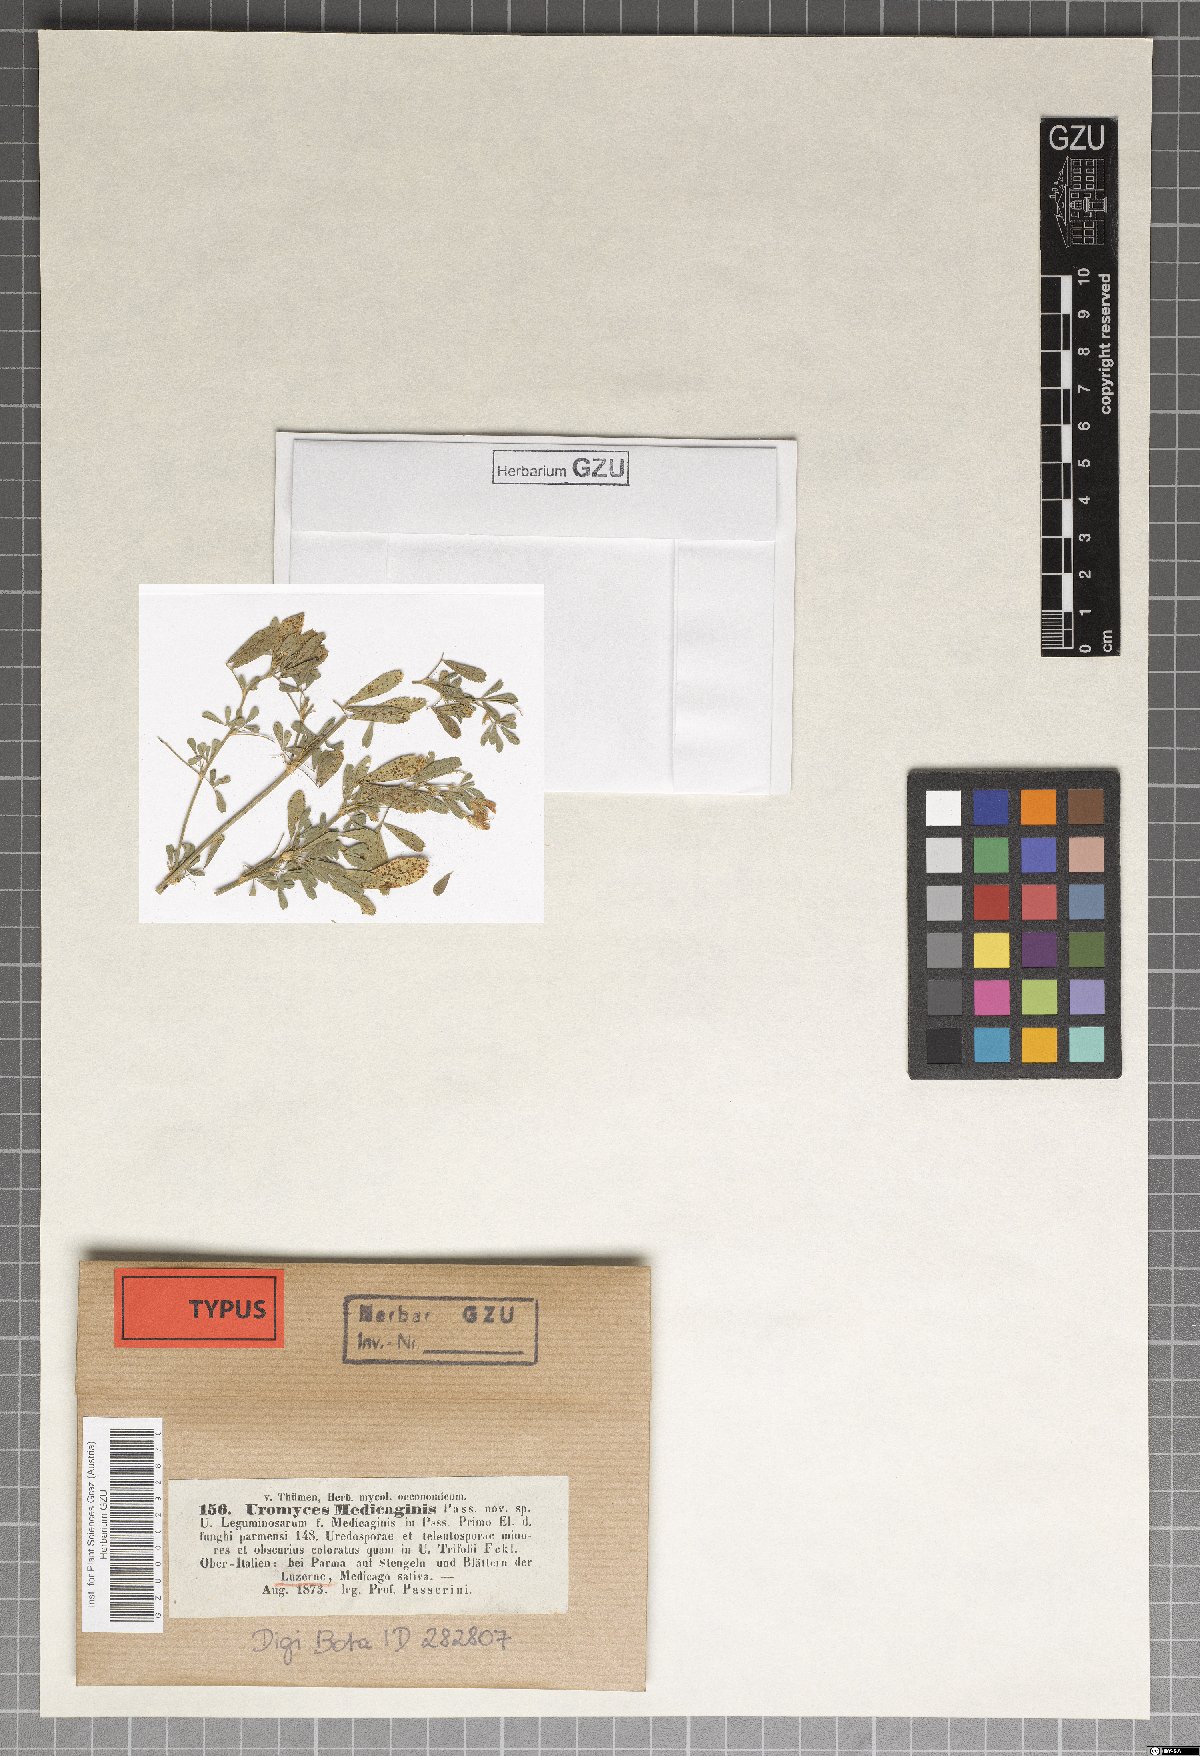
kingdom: Fungi
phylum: Basidiomycota
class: Pucciniomycetes
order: Pucciniales
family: Pucciniaceae
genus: Uromyces
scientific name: Uromyces striatus
